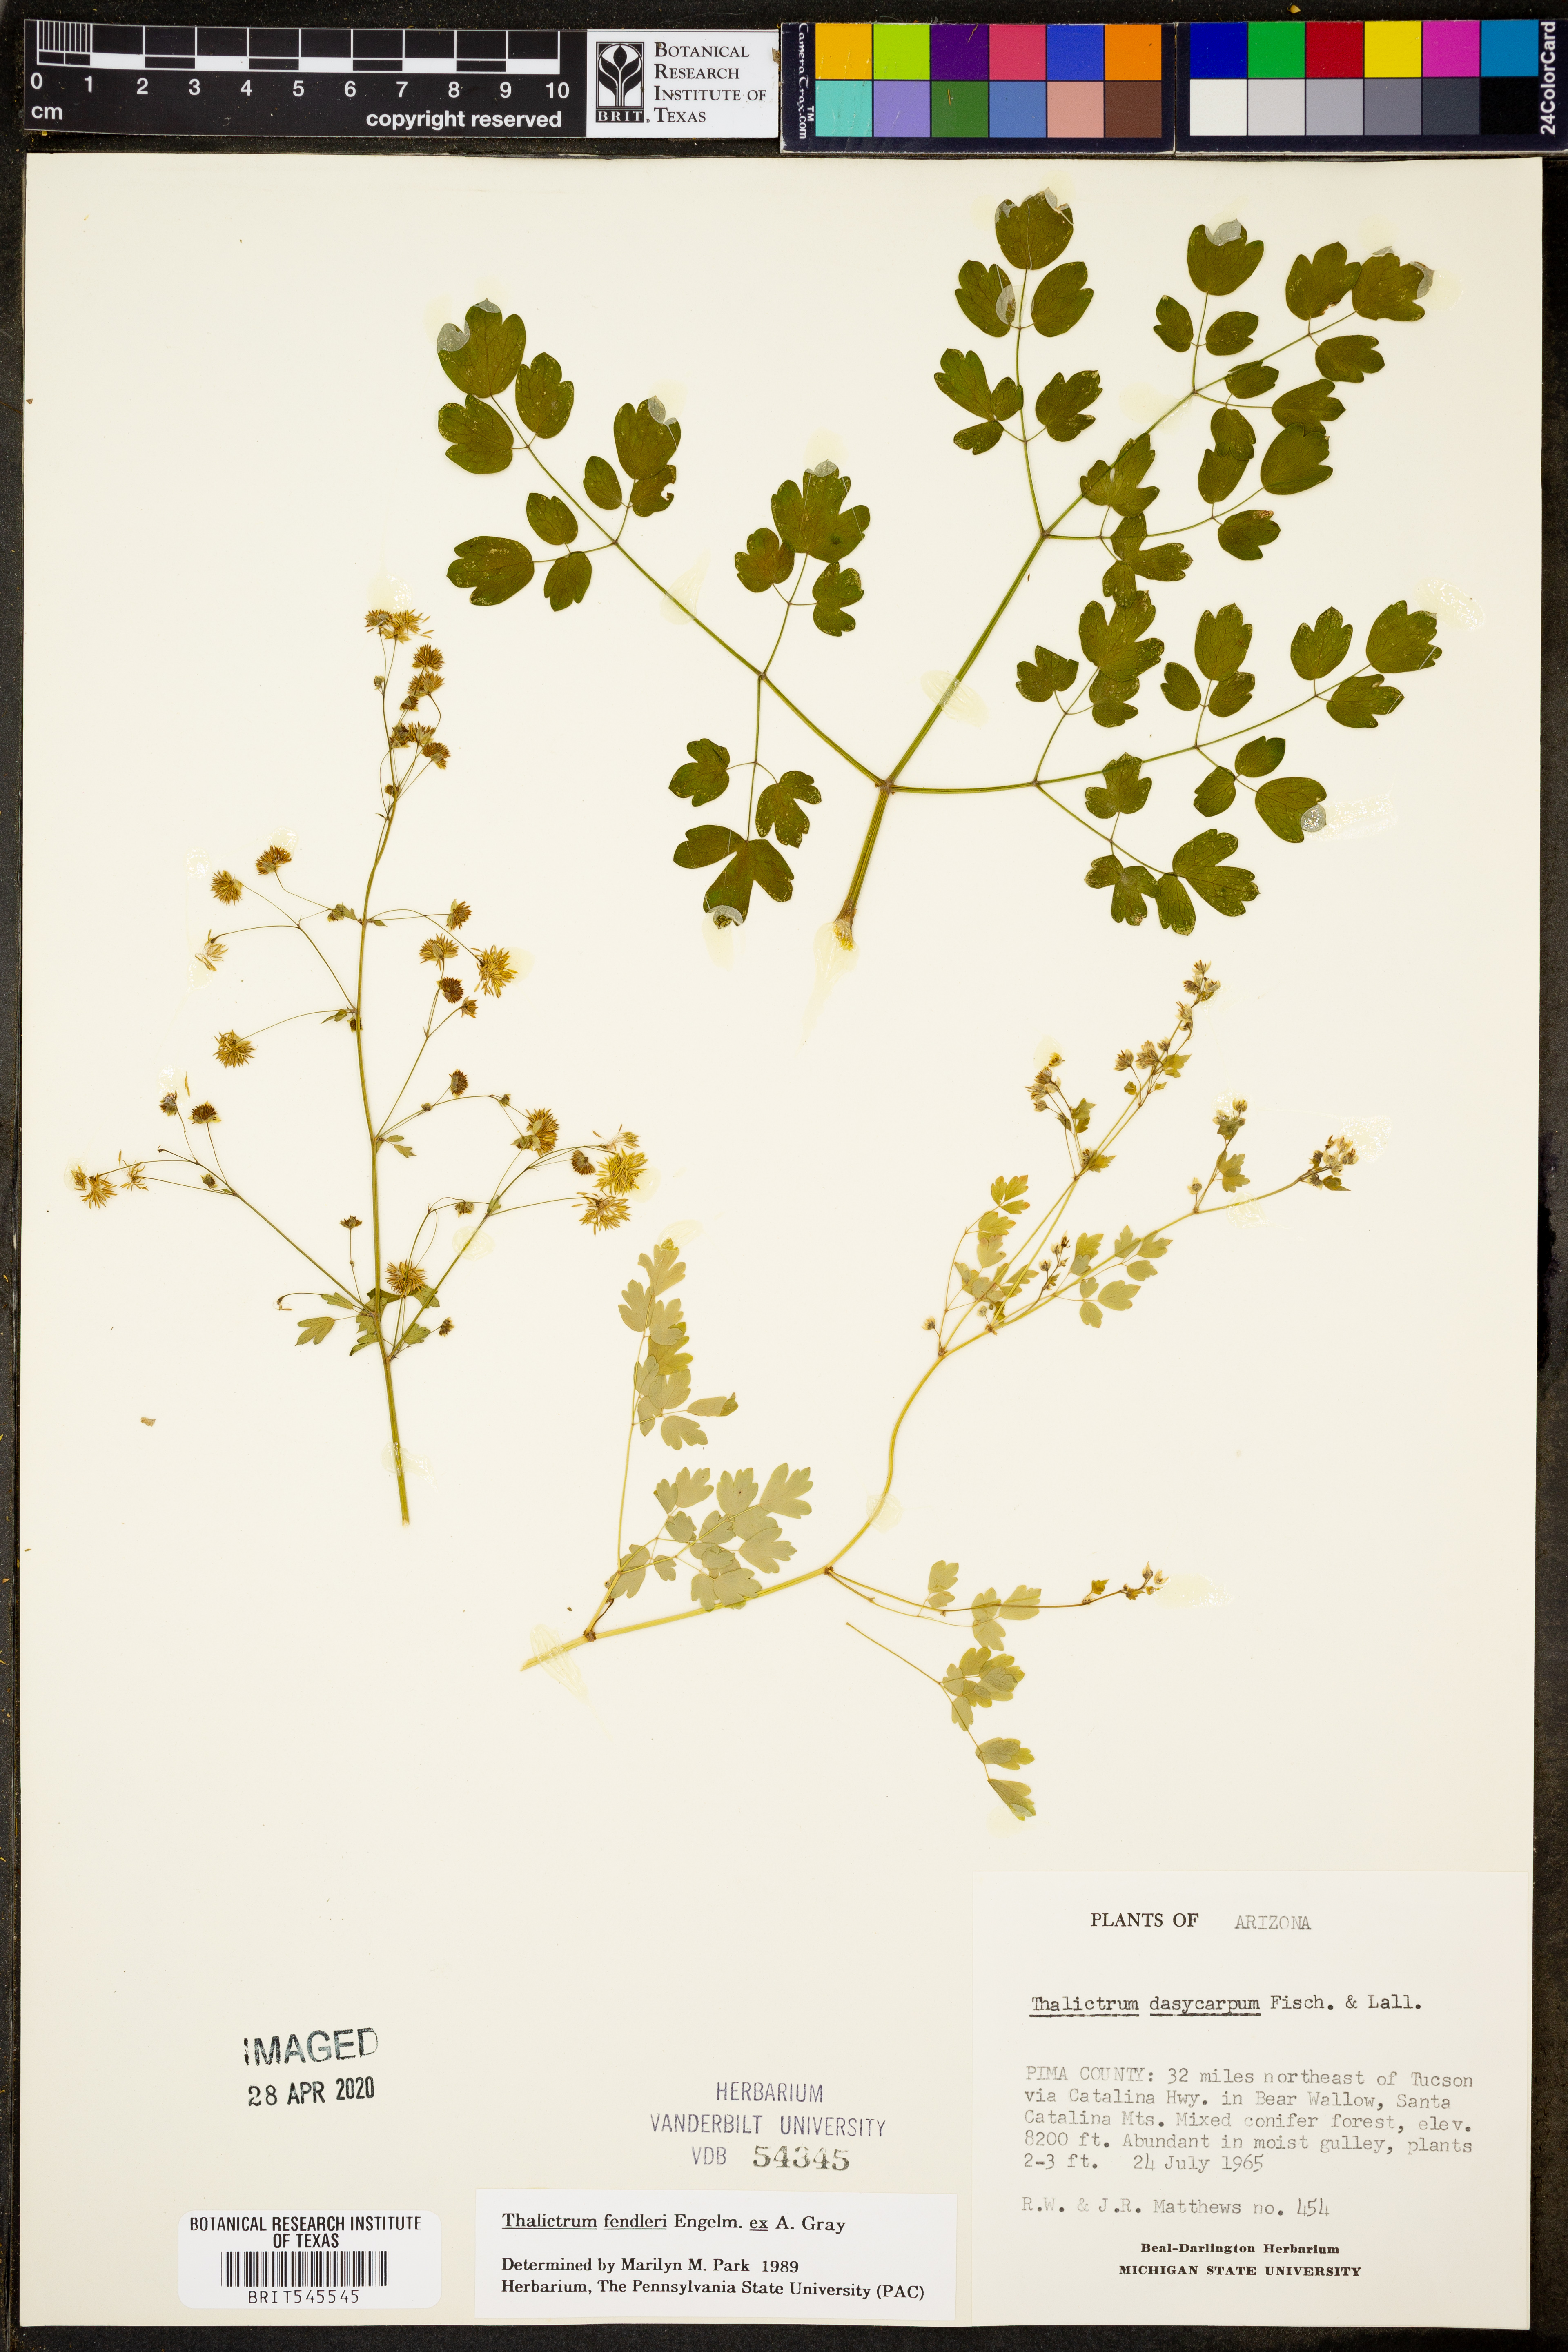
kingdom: Plantae
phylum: Tracheophyta
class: Magnoliopsida
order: Ranunculales
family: Ranunculaceae
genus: Thalictrum
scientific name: Thalictrum fendleri
